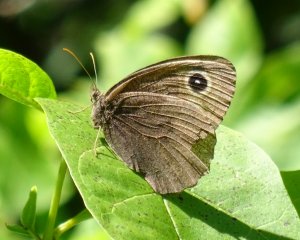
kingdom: Animalia
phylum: Arthropoda
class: Insecta
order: Lepidoptera
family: Nymphalidae
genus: Cercyonis
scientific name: Cercyonis pegala
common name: Common Wood-Nymph
